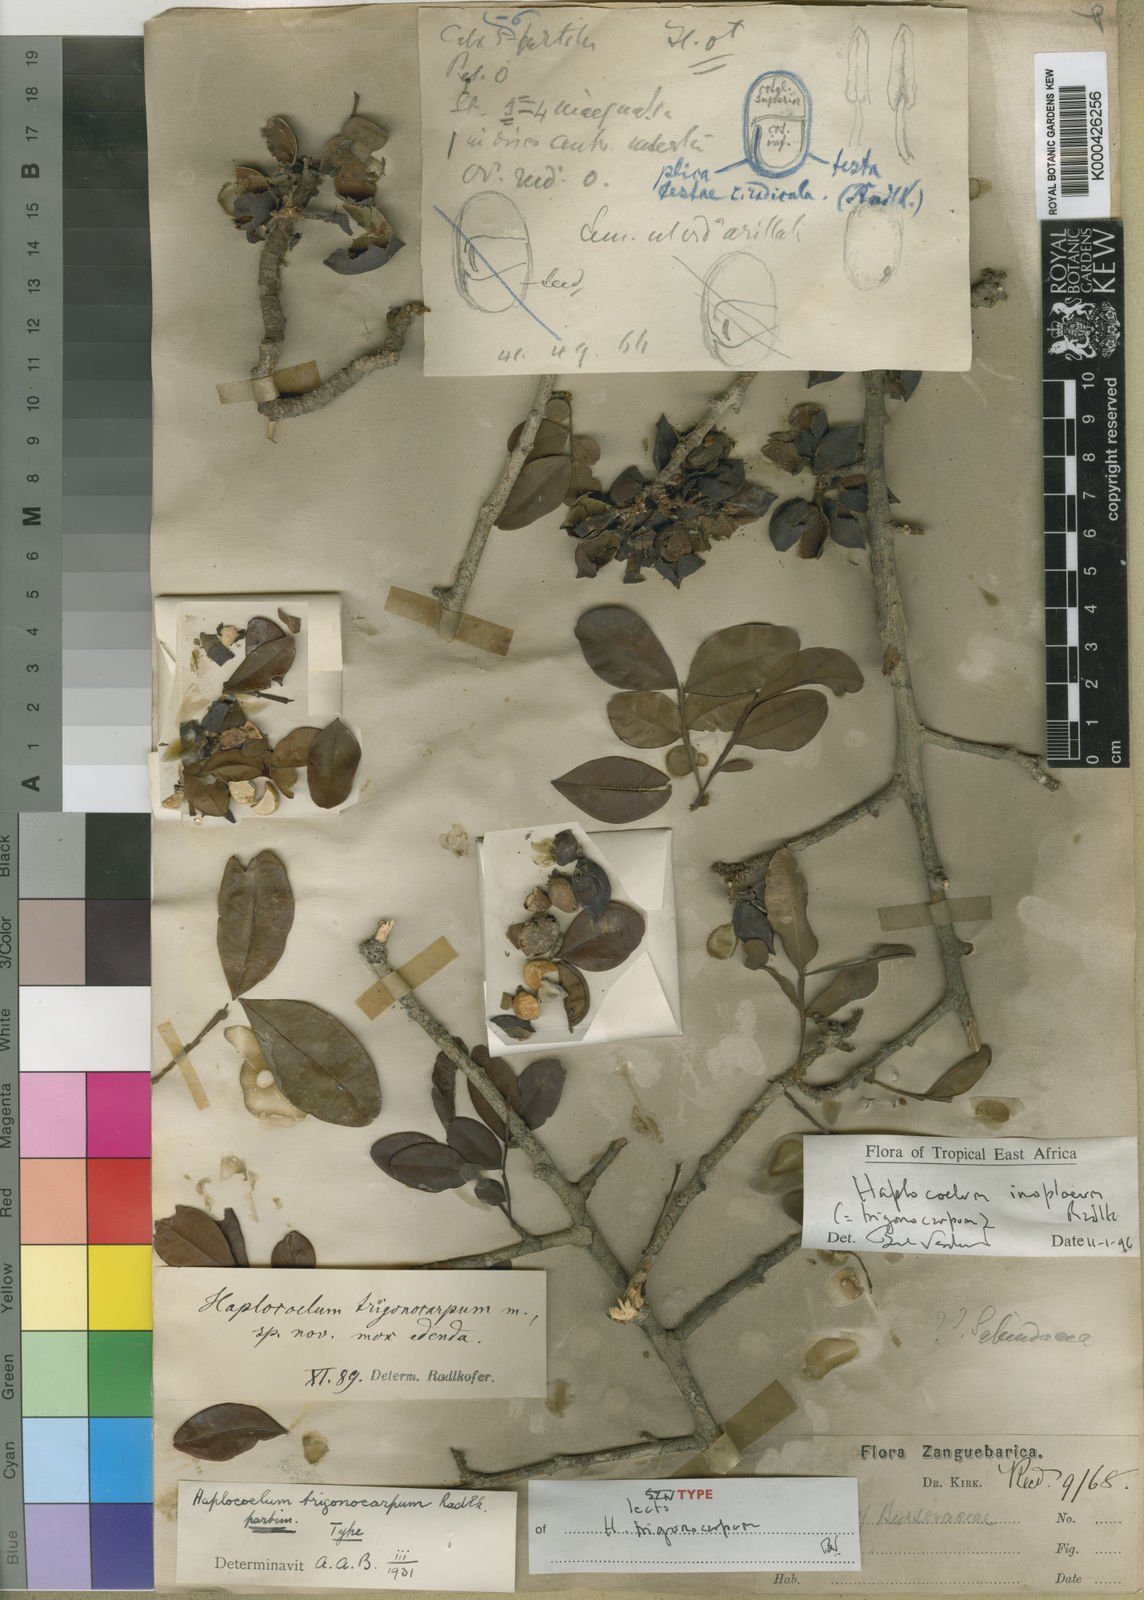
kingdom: Plantae
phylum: Tracheophyta
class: Magnoliopsida
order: Sapindales
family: Sapindaceae
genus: Haplocoelum
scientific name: Haplocoelum inoploeum
